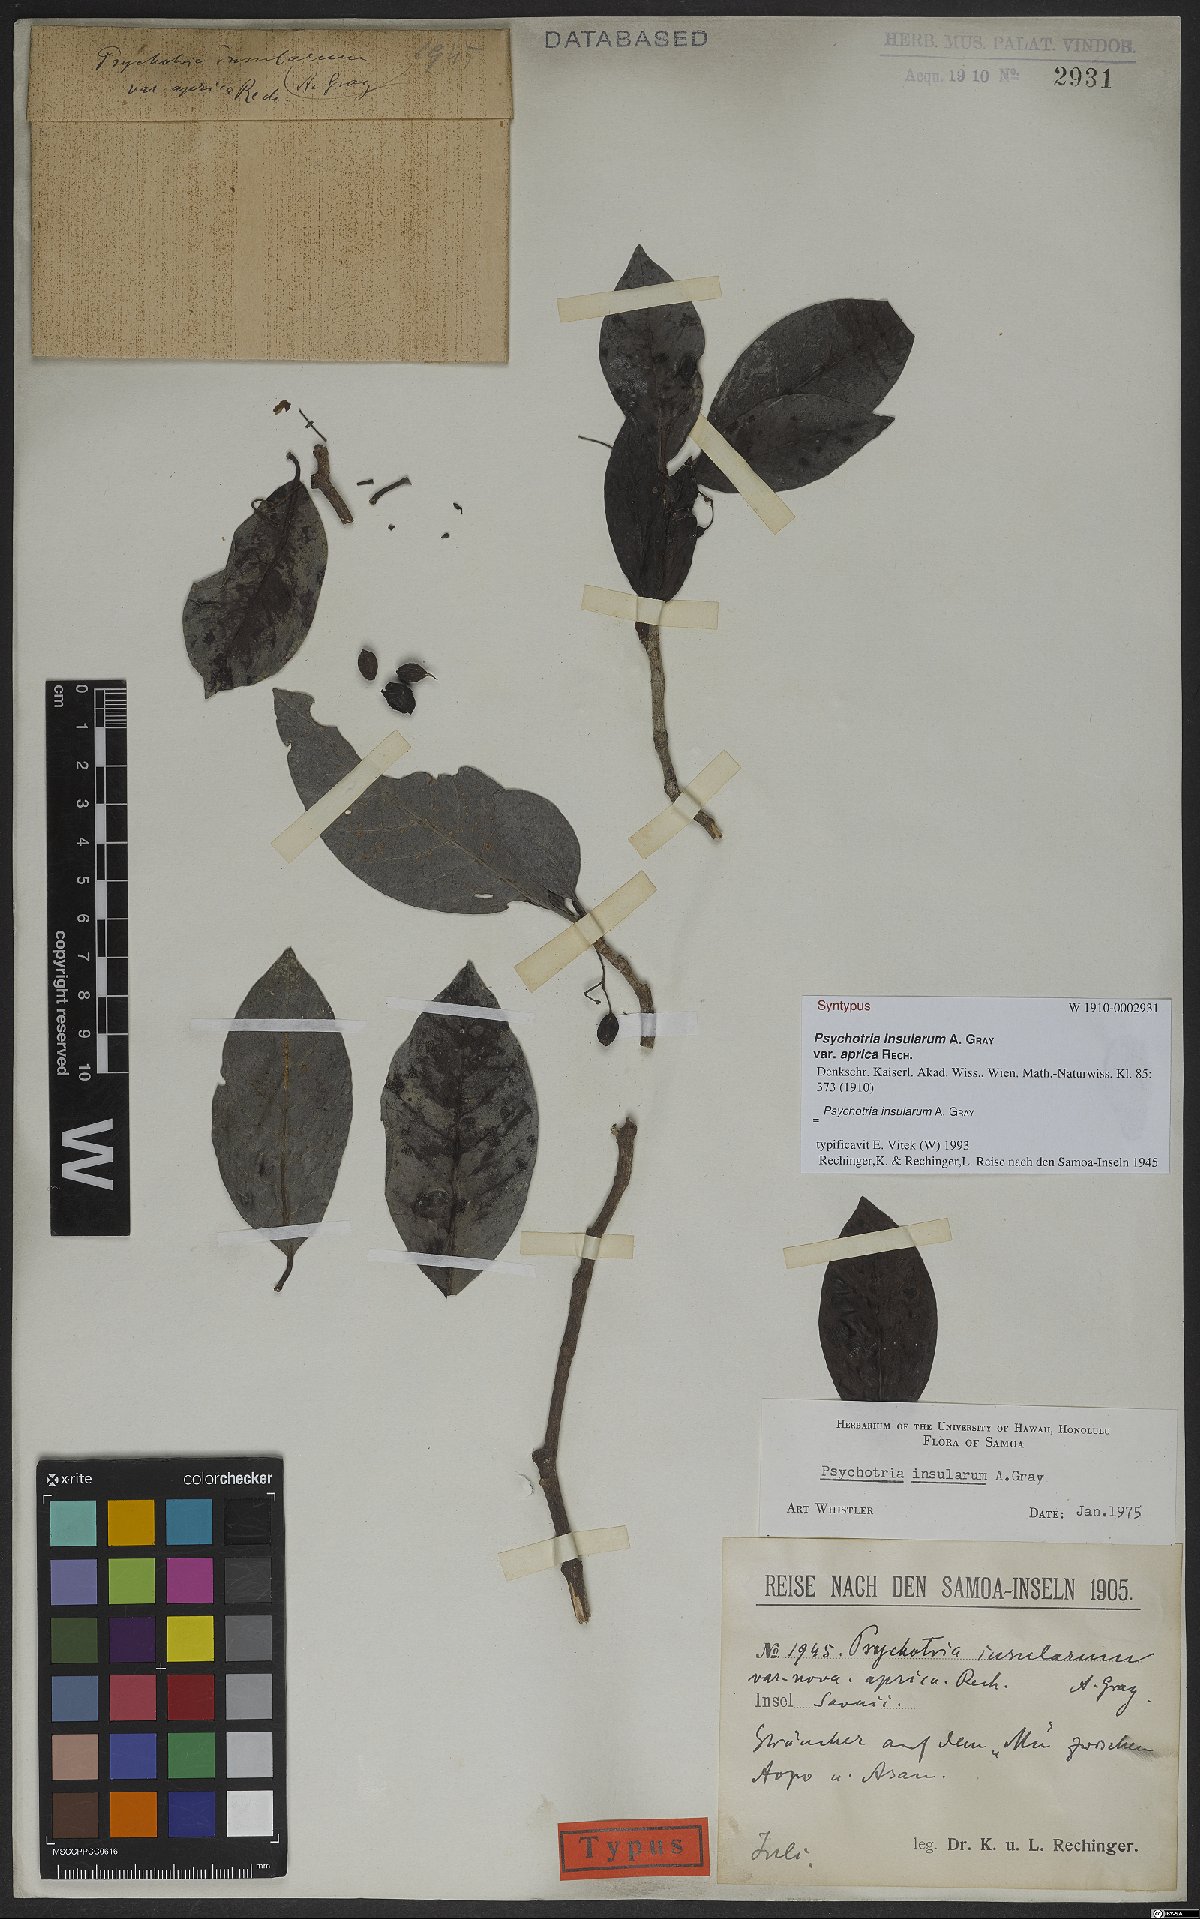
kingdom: Plantae
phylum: Tracheophyta
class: Magnoliopsida
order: Gentianales
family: Rubiaceae
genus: Psychotria
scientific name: Psychotria insularum
